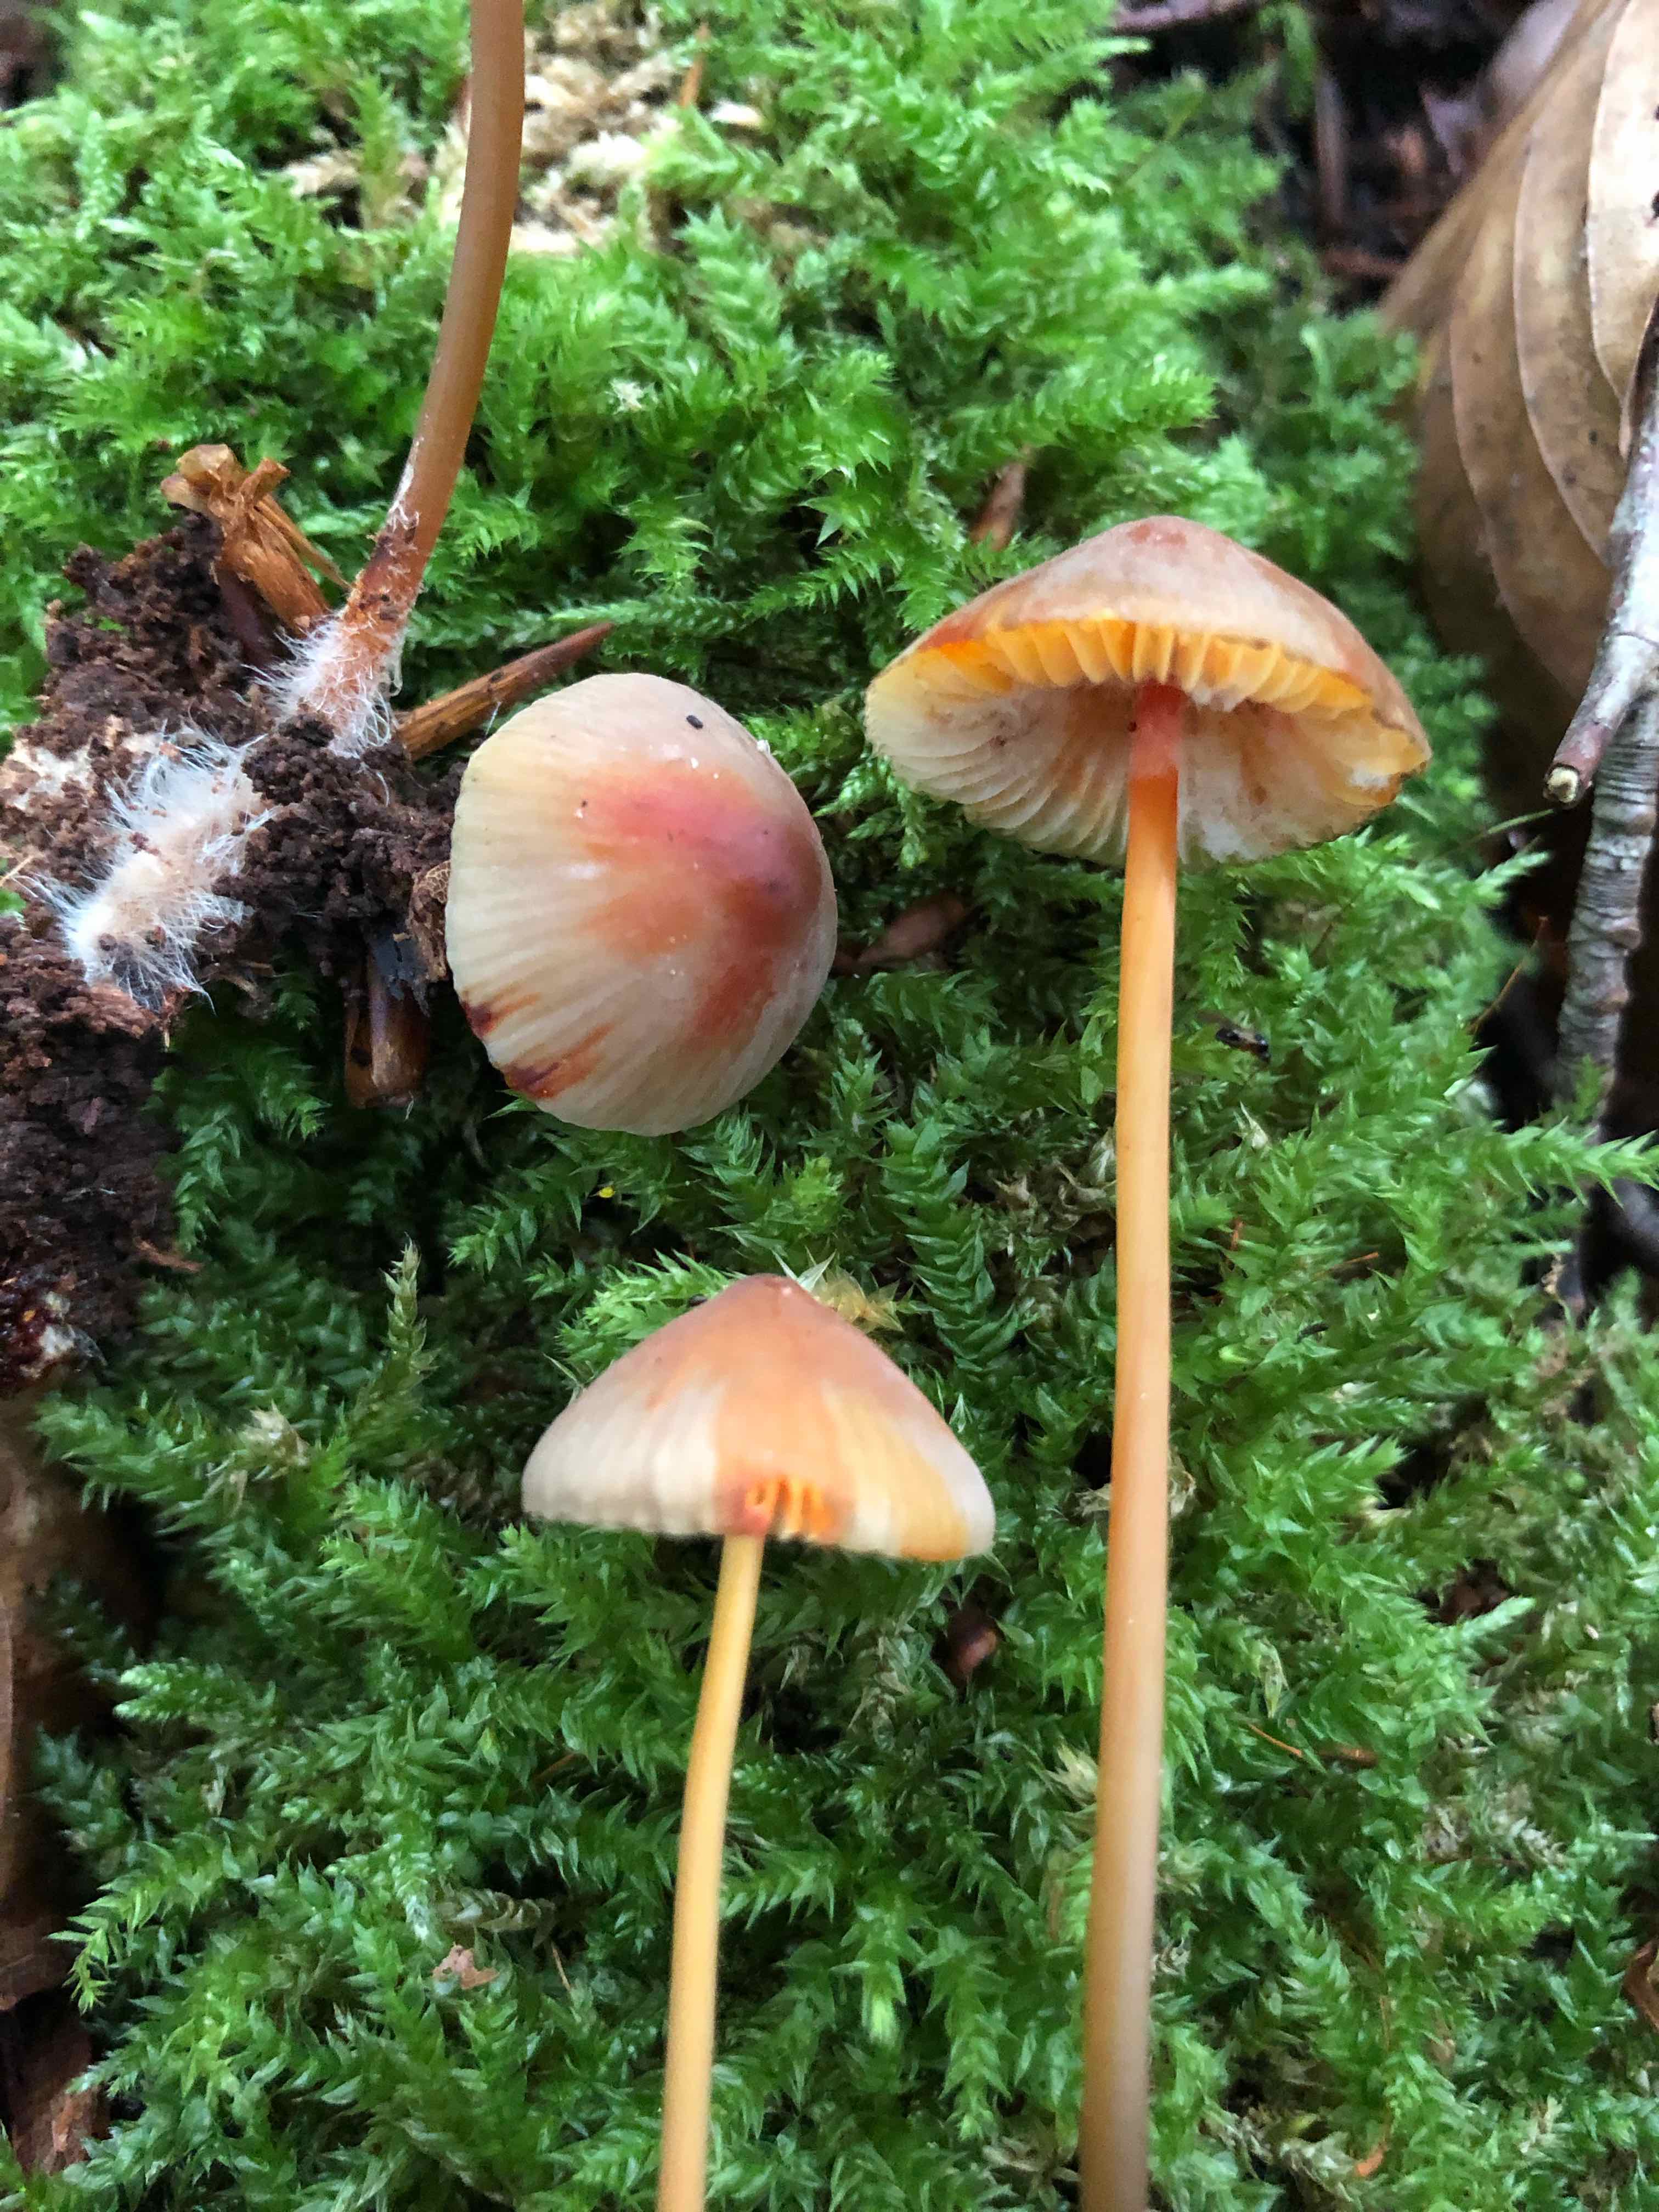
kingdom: Fungi
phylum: Basidiomycota
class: Agaricomycetes
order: Agaricales
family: Mycenaceae
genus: Mycena
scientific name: Mycena crocata
